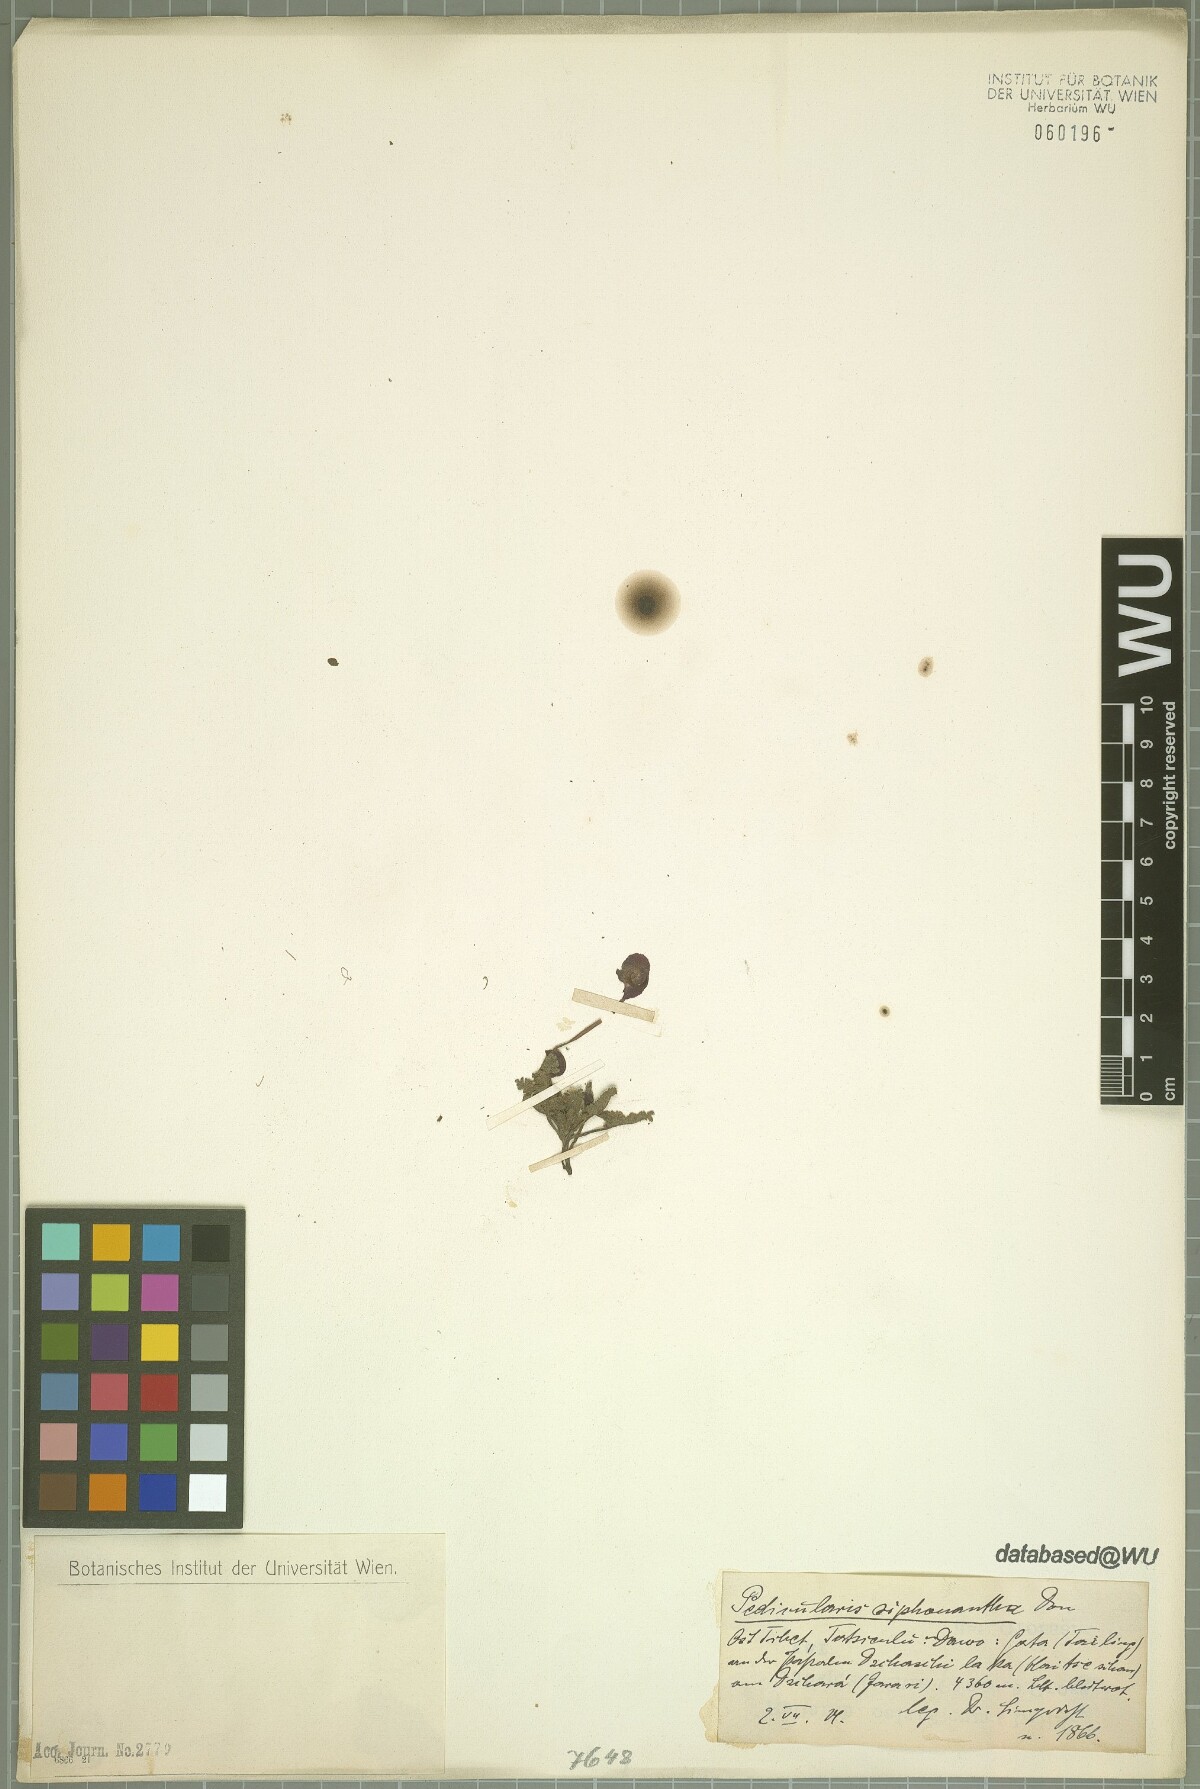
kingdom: Plantae
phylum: Tracheophyta
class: Magnoliopsida
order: Lamiales
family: Orobanchaceae
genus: Pedicularis
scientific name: Pedicularis siphonantha
